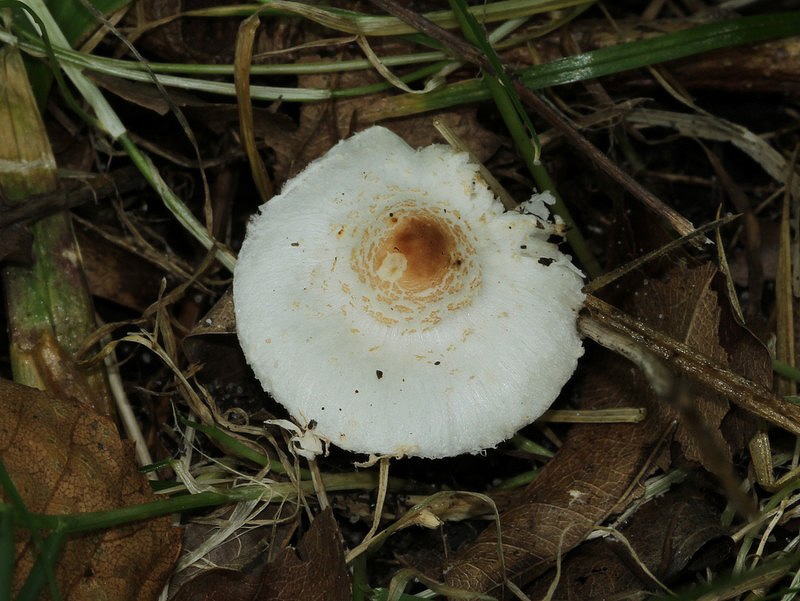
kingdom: Fungi
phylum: Basidiomycota
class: Agaricomycetes
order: Agaricales
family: Agaricaceae
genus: Lepiota
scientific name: Lepiota cristata
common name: stinkende parasolhat
